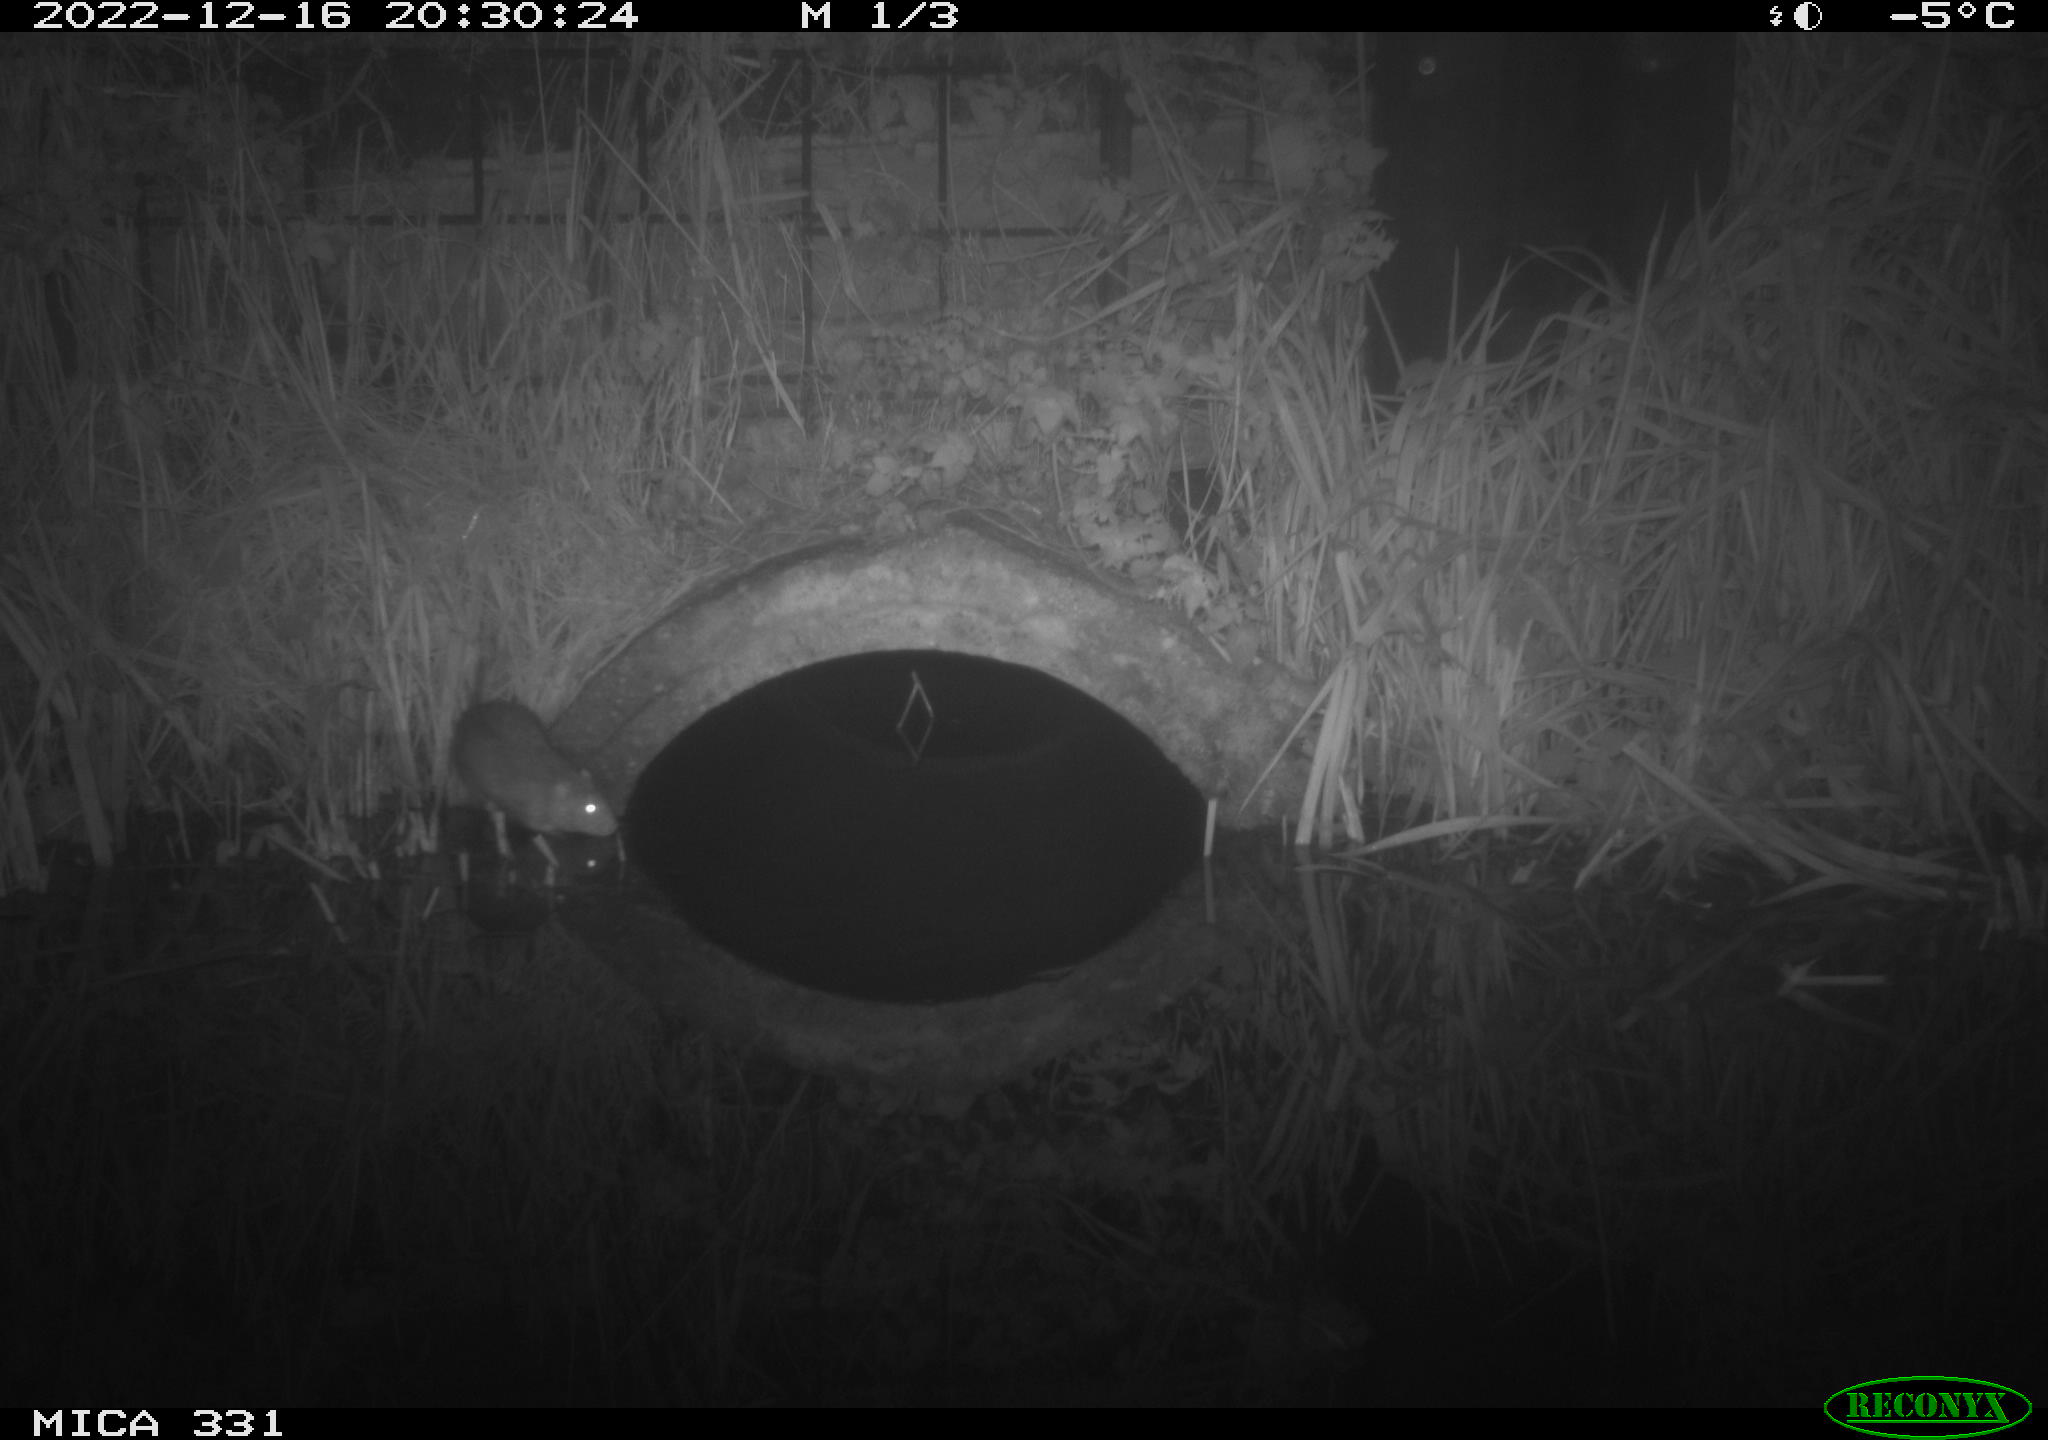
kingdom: Animalia
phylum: Chordata
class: Mammalia
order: Rodentia
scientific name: Rodentia
